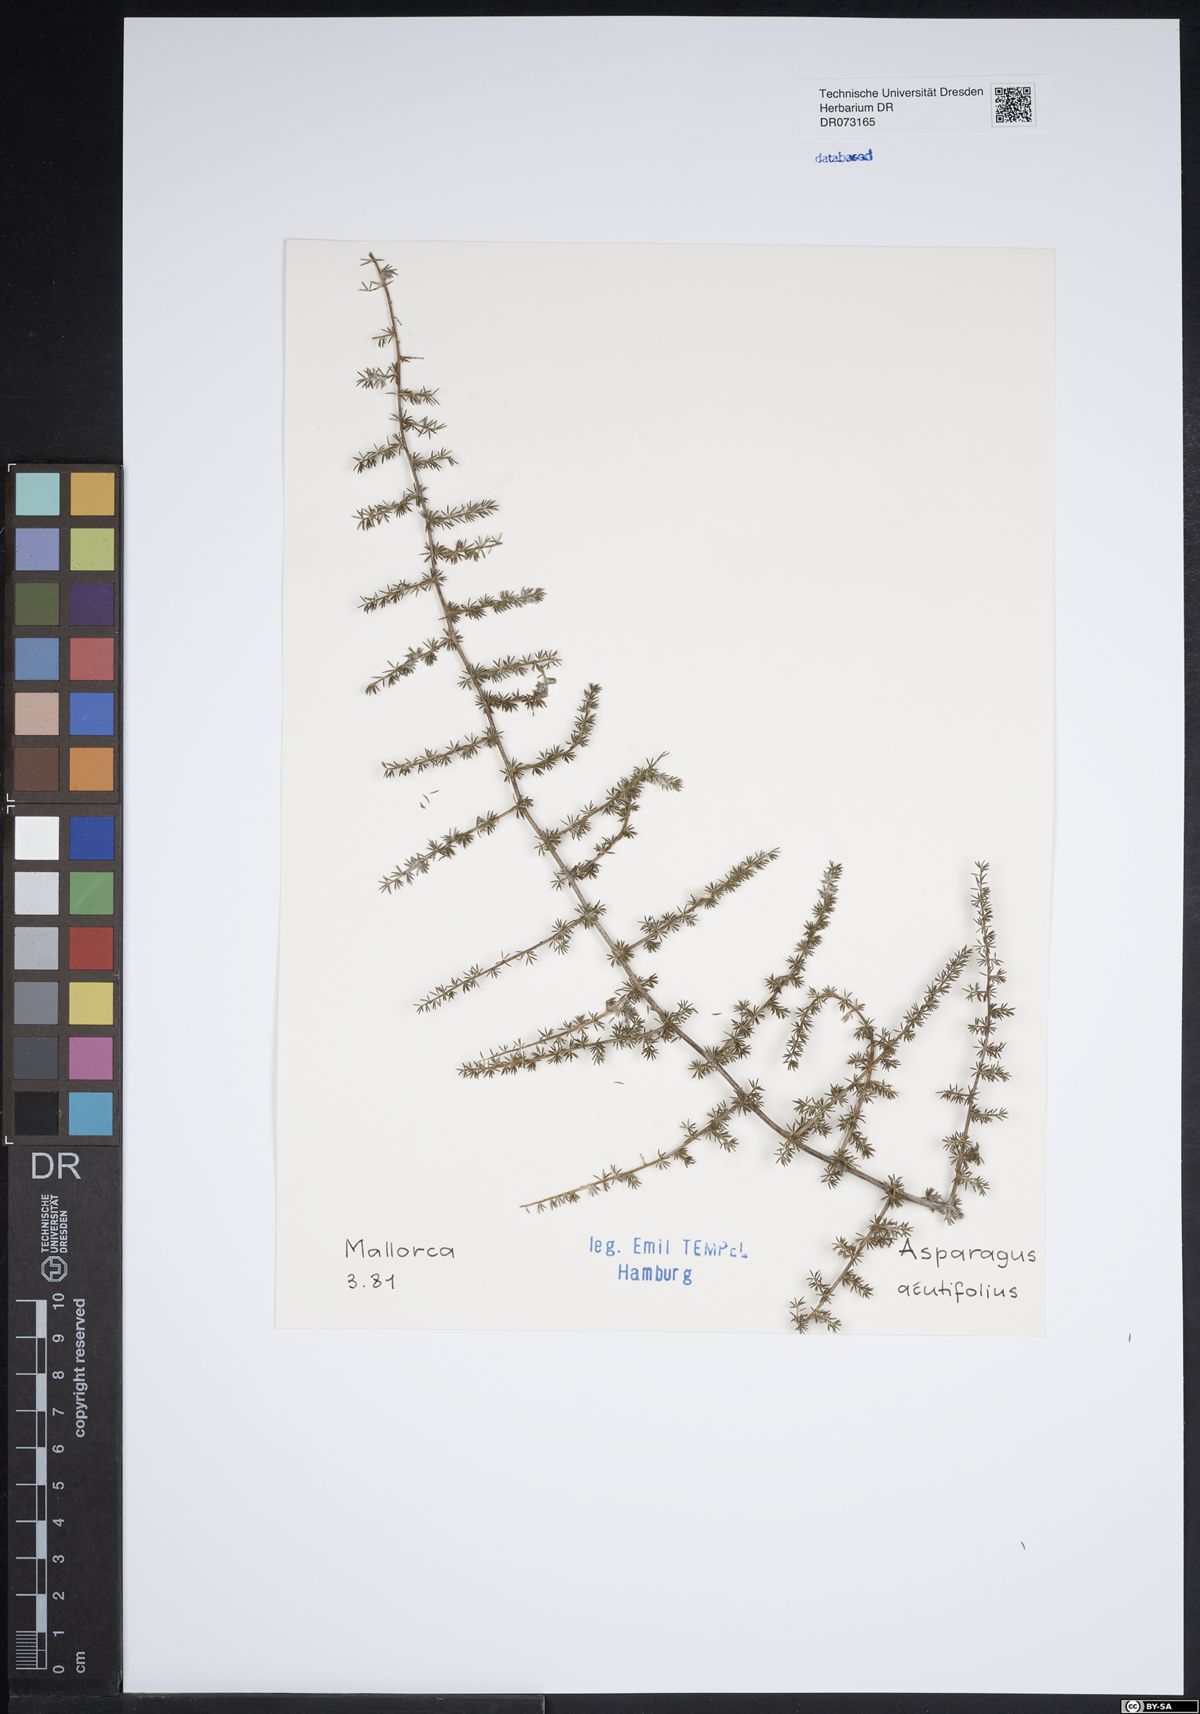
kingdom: Plantae
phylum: Tracheophyta
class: Liliopsida
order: Asparagales
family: Asparagaceae
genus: Asparagus
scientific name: Asparagus acutifolius
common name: Wild asparagus
